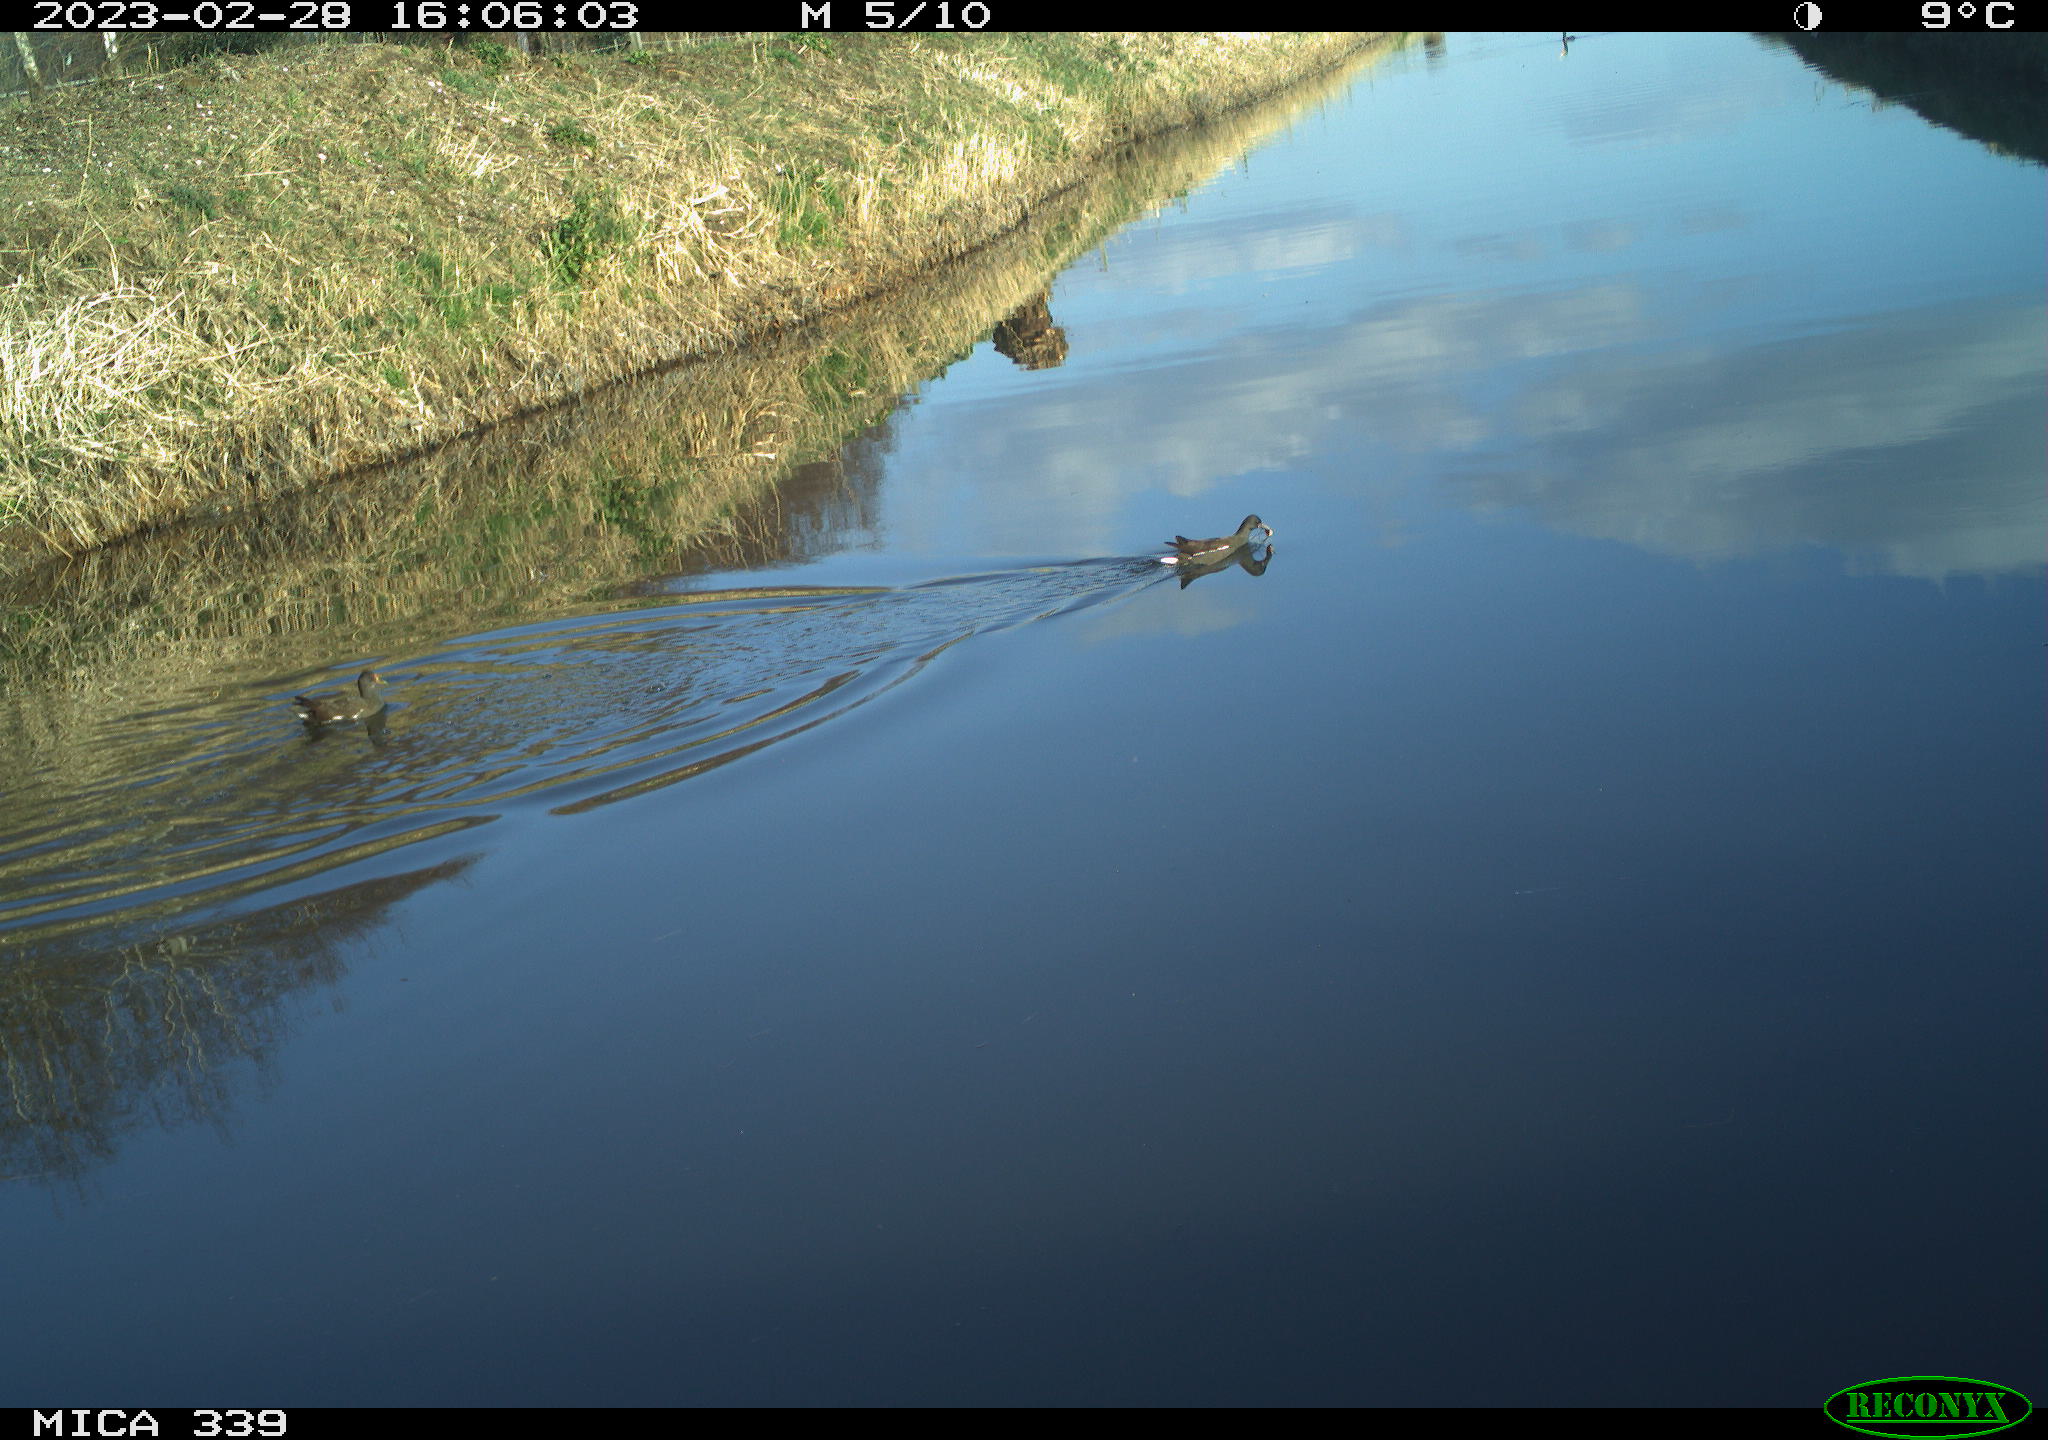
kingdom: Animalia
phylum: Chordata
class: Aves
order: Gruiformes
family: Rallidae
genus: Gallinula
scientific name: Gallinula chloropus
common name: Common moorhen
